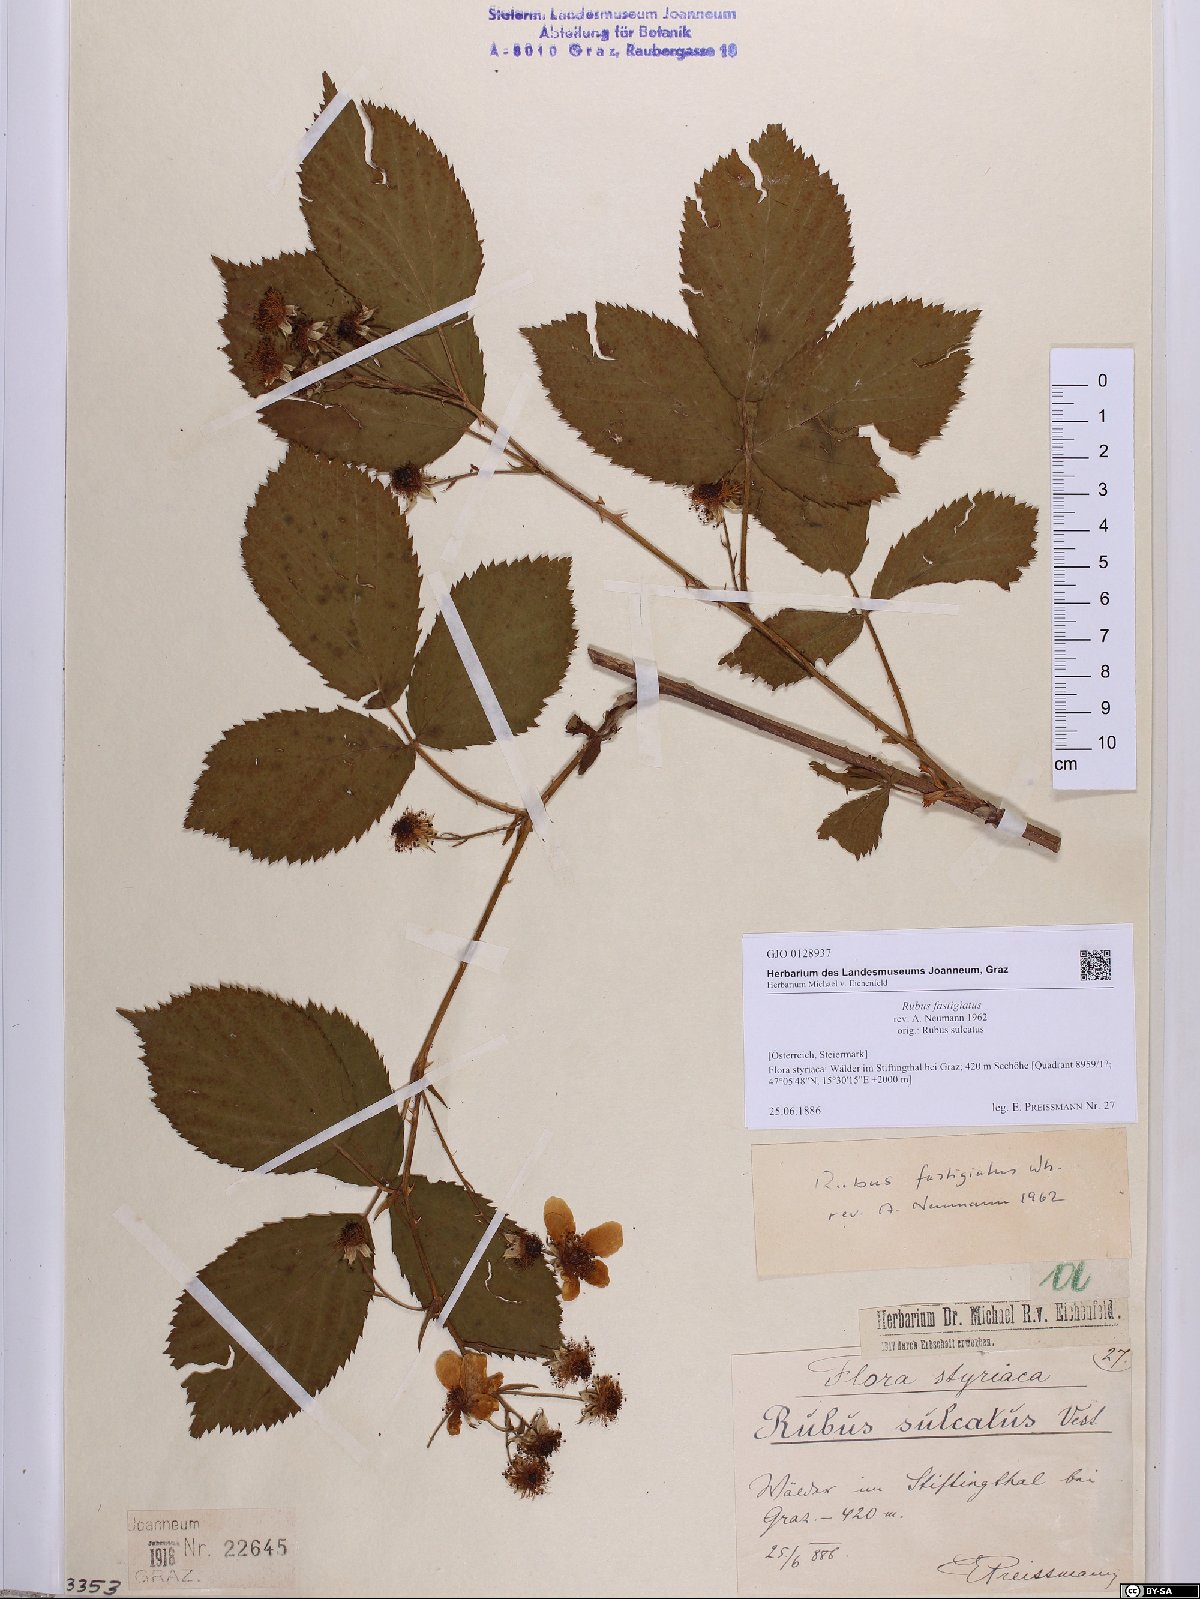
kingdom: Plantae
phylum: Tracheophyta
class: Magnoliopsida
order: Rosales
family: Rosaceae
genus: Rubus
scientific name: Rubus polonicus
